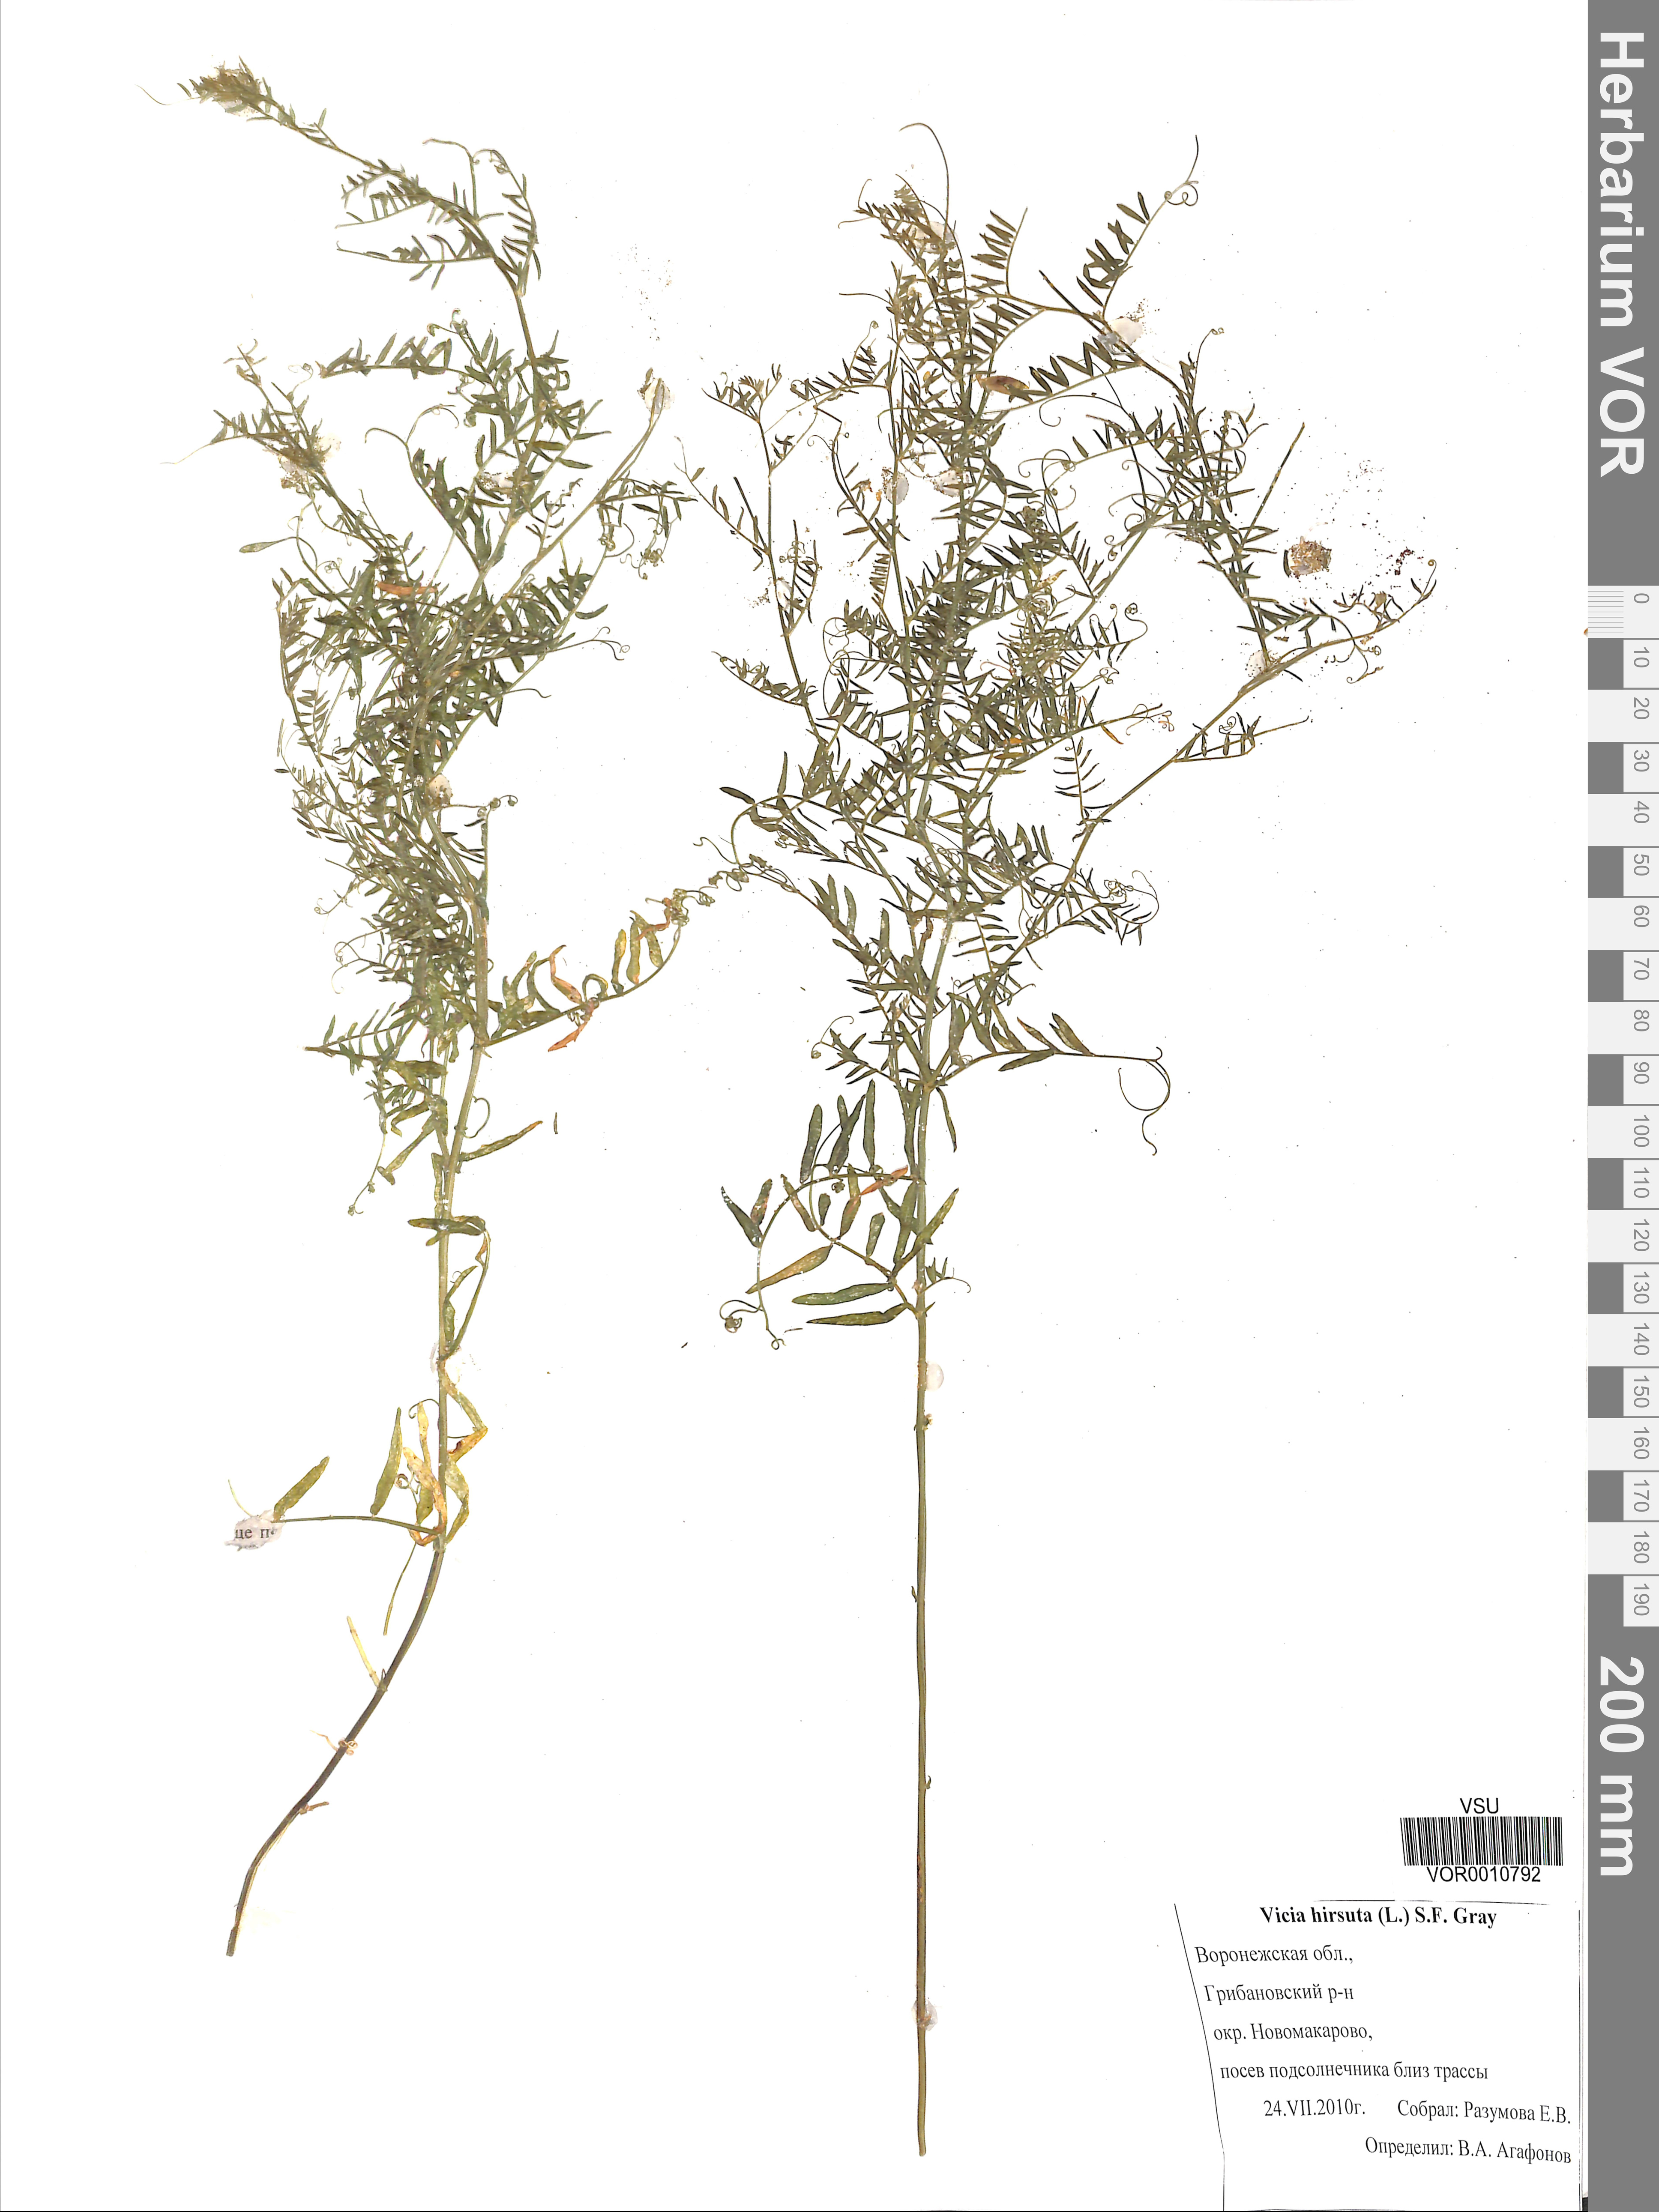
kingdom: Plantae
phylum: Tracheophyta
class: Magnoliopsida
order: Fabales
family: Fabaceae
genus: Vicia
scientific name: Vicia hirsuta
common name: Tiny vetch
